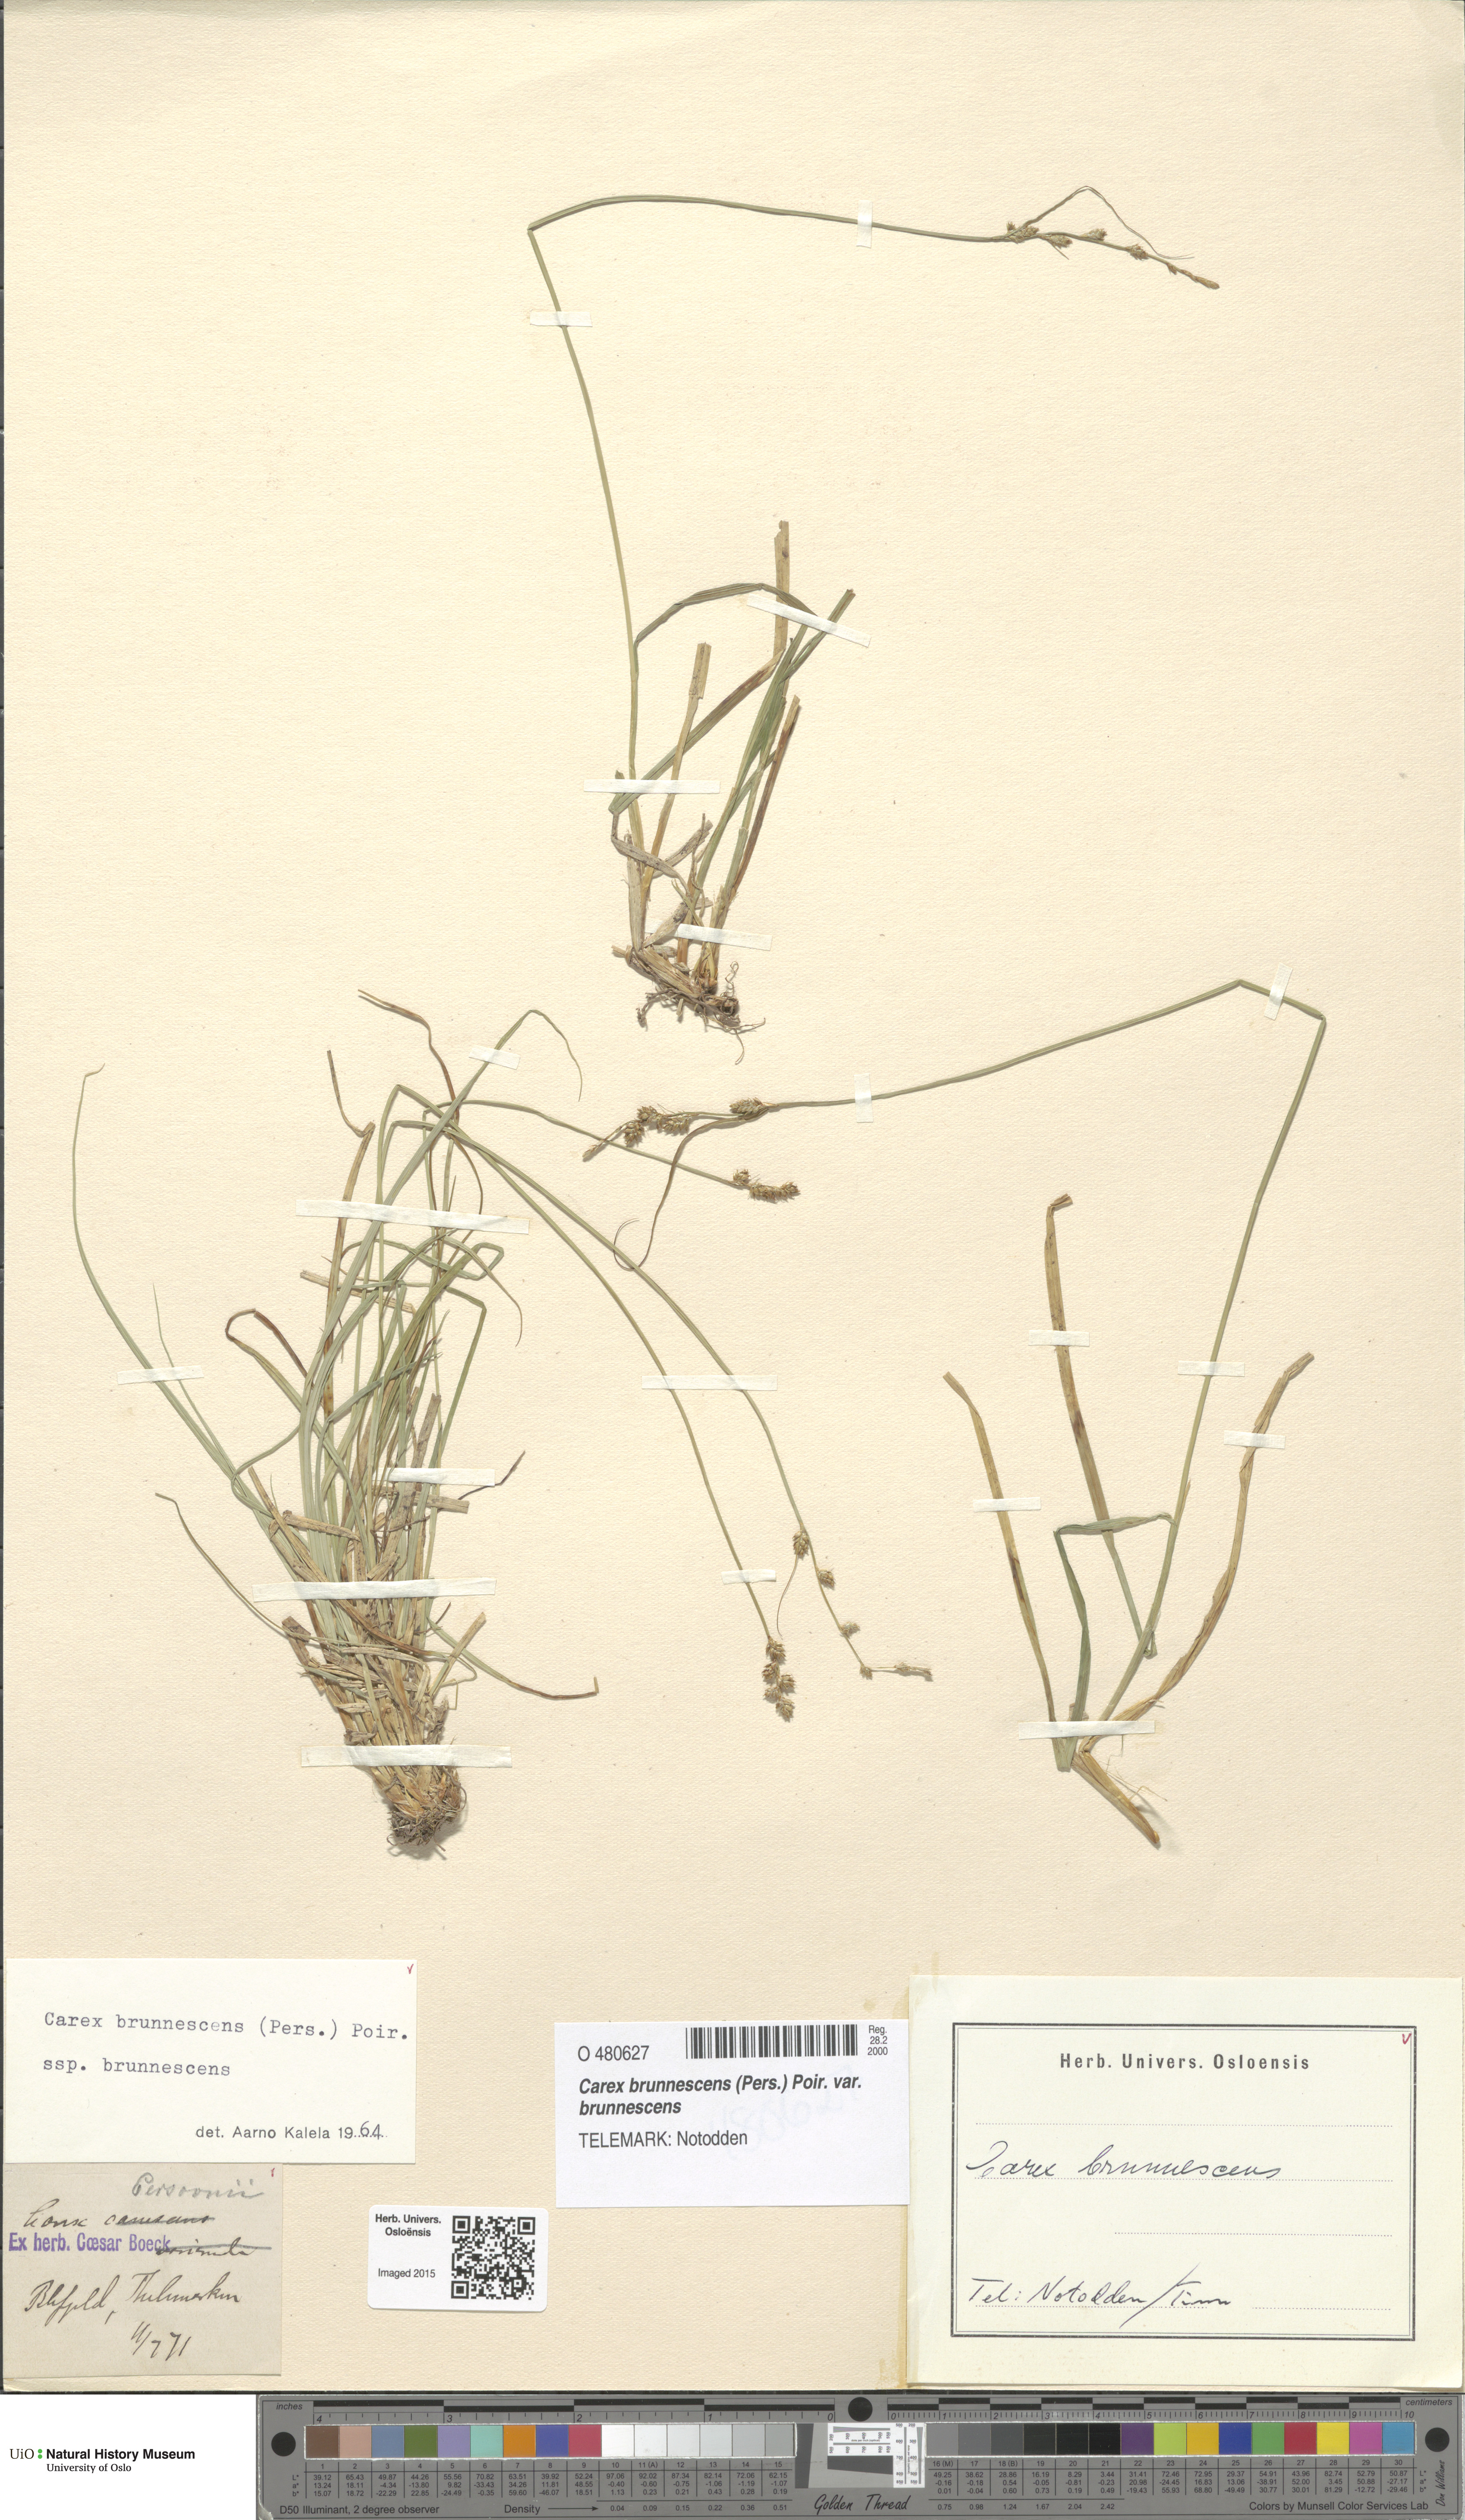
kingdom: Plantae
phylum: Tracheophyta
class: Liliopsida
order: Poales
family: Cyperaceae
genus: Carex
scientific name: Carex brunnescens
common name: Brown sedge
